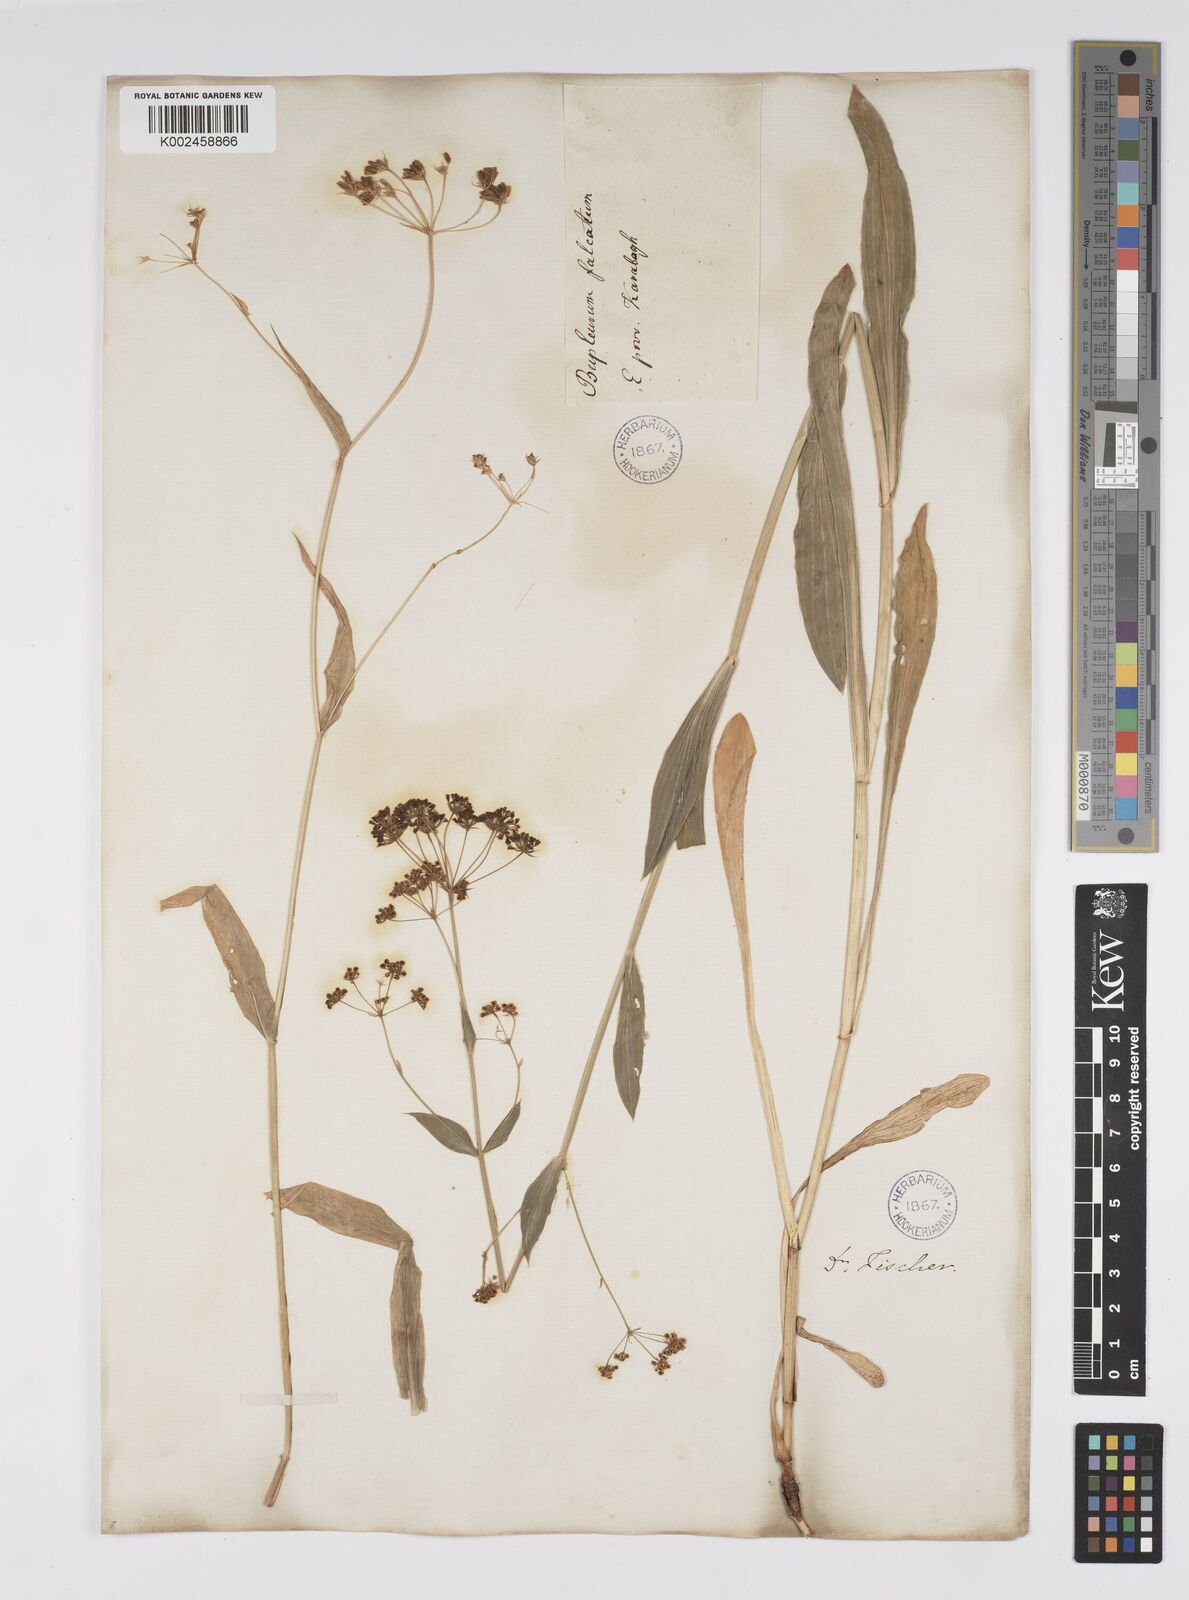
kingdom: Plantae
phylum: Tracheophyta
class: Magnoliopsida
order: Apiales
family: Apiaceae
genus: Bupleurum
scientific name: Bupleurum falcatum
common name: Sickle-leaved hare's-ear
